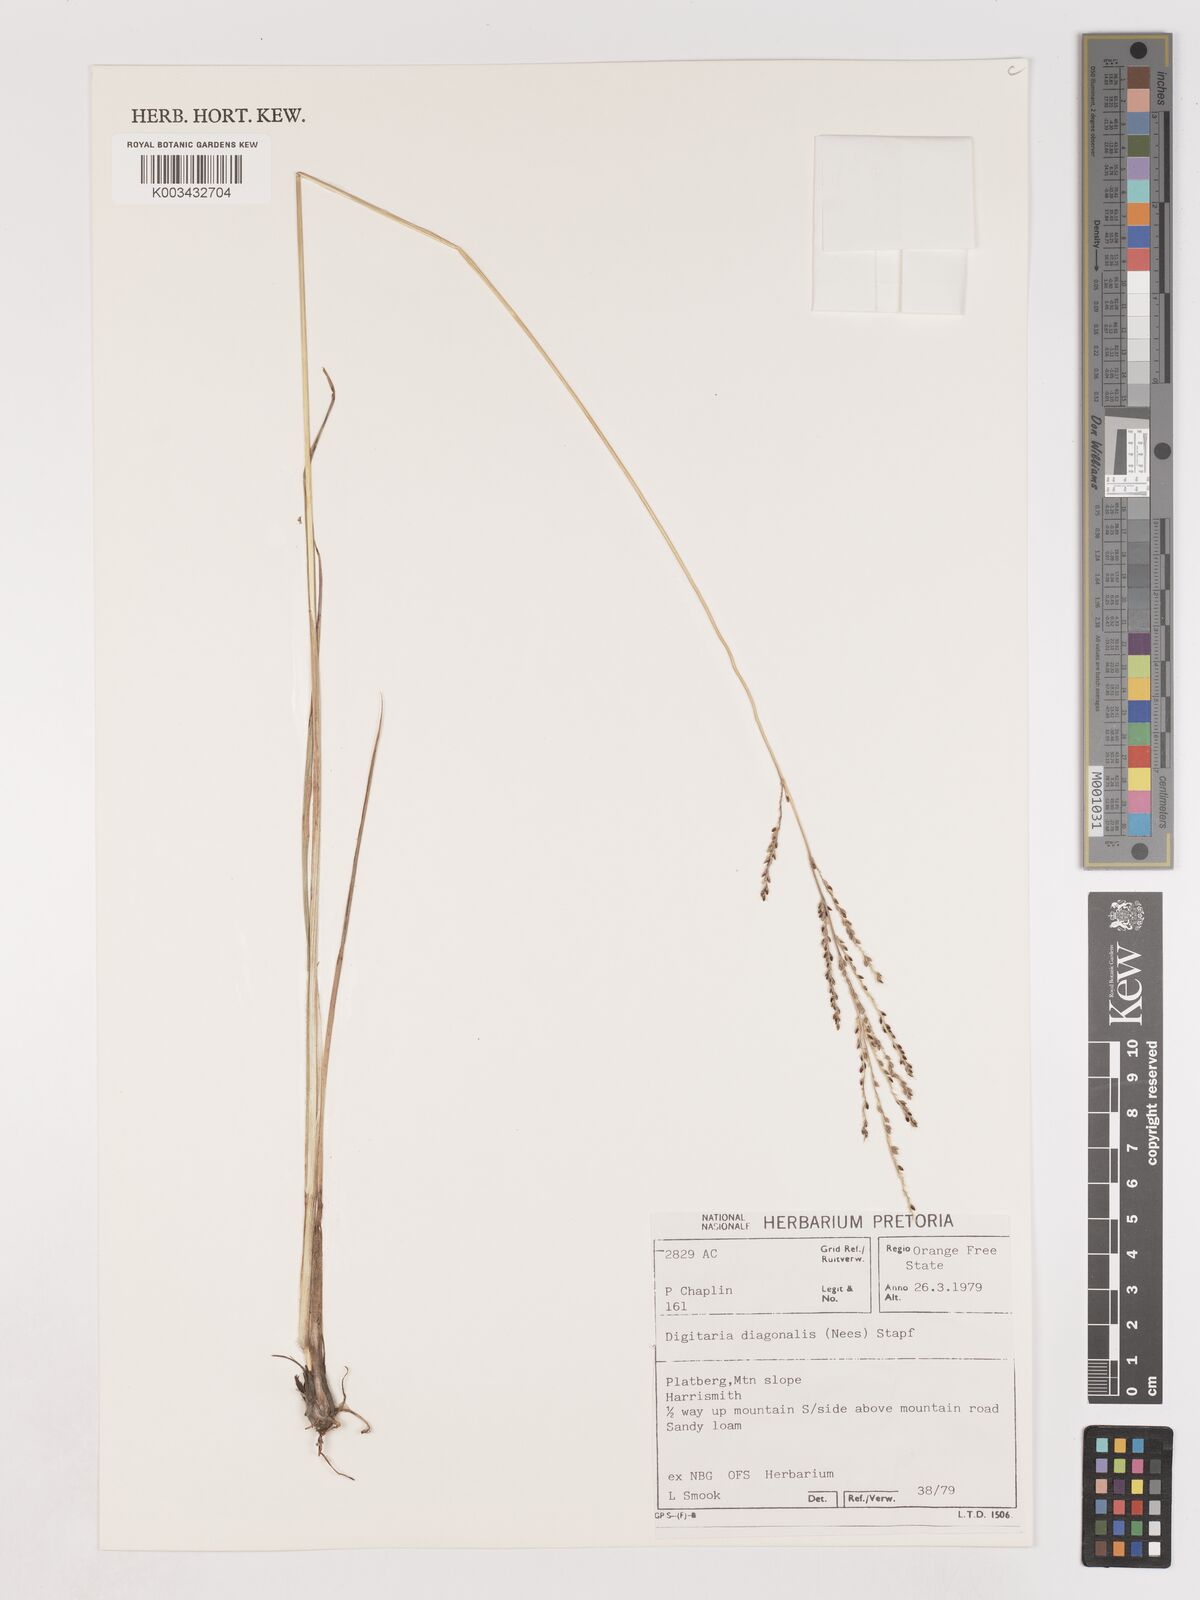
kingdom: Plantae
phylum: Tracheophyta
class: Liliopsida
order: Poales
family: Poaceae
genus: Digitaria
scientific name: Digitaria diagonalis
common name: Brown-seed finger grass
